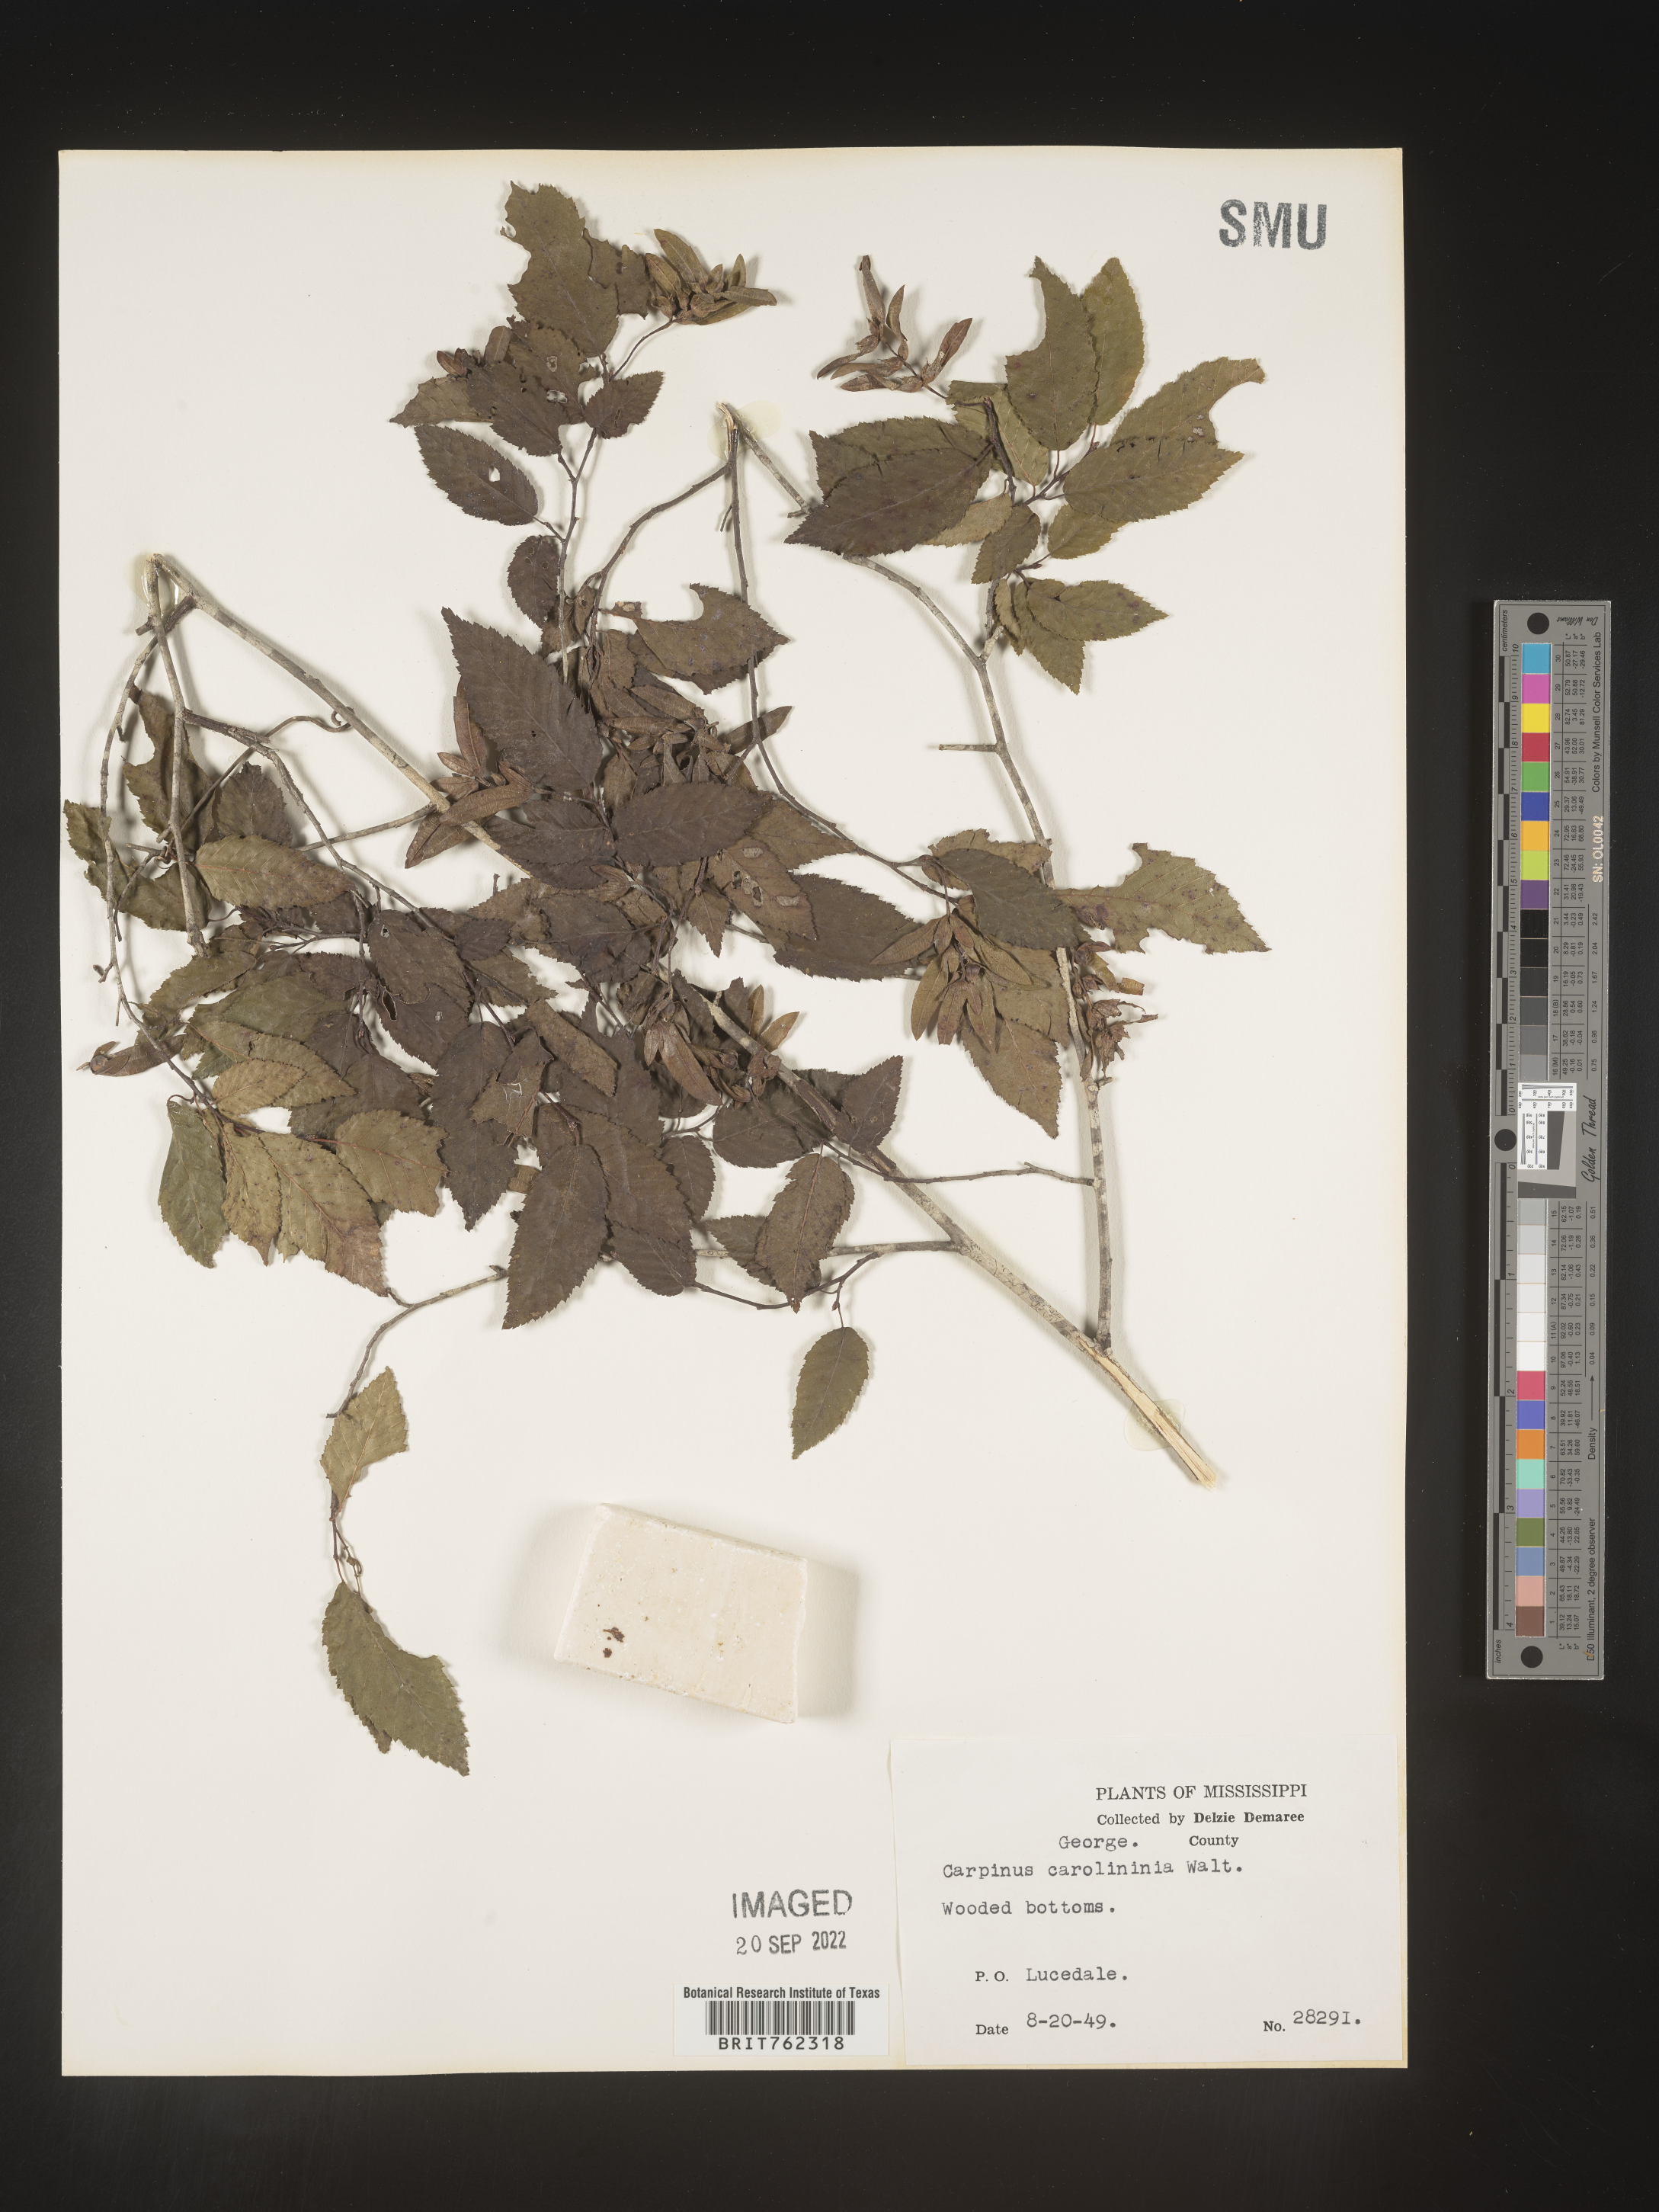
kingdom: Plantae
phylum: Tracheophyta
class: Magnoliopsida
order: Fagales
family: Betulaceae
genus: Carpinus
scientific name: Carpinus caroliniana
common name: American hornbeam
